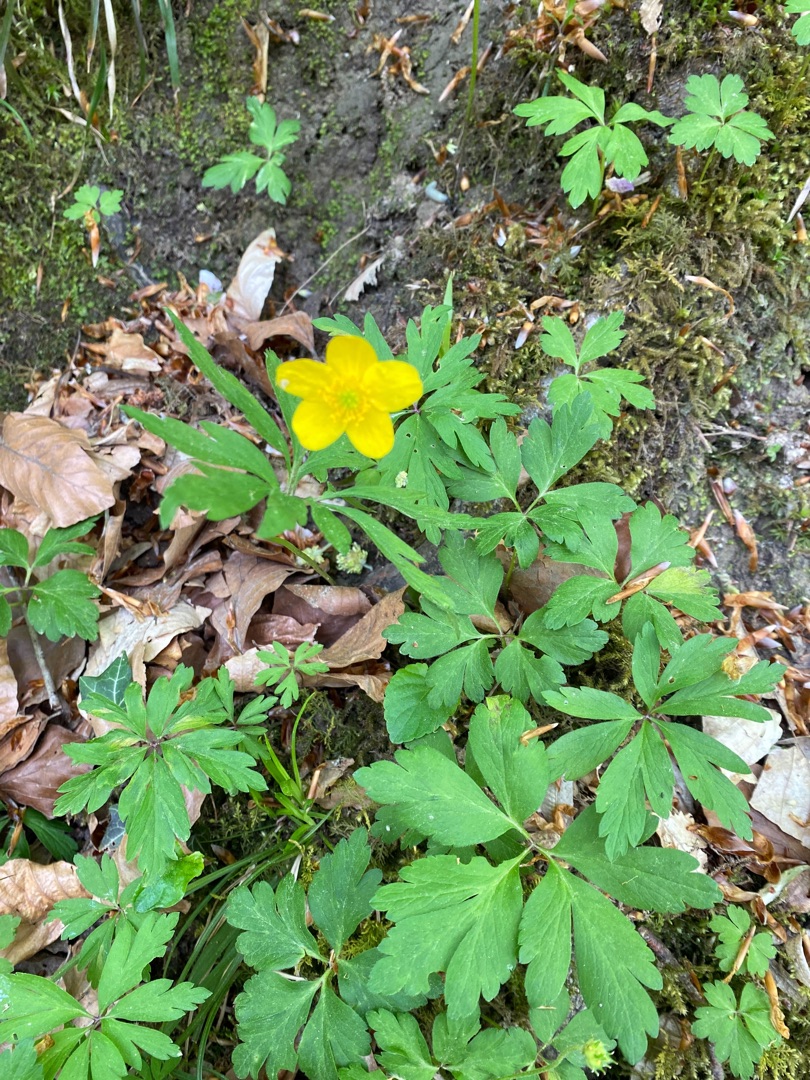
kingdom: Plantae
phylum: Tracheophyta
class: Magnoliopsida
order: Ranunculales
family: Ranunculaceae
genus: Anemone
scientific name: Anemone ranunculoides
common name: Gul anemone
